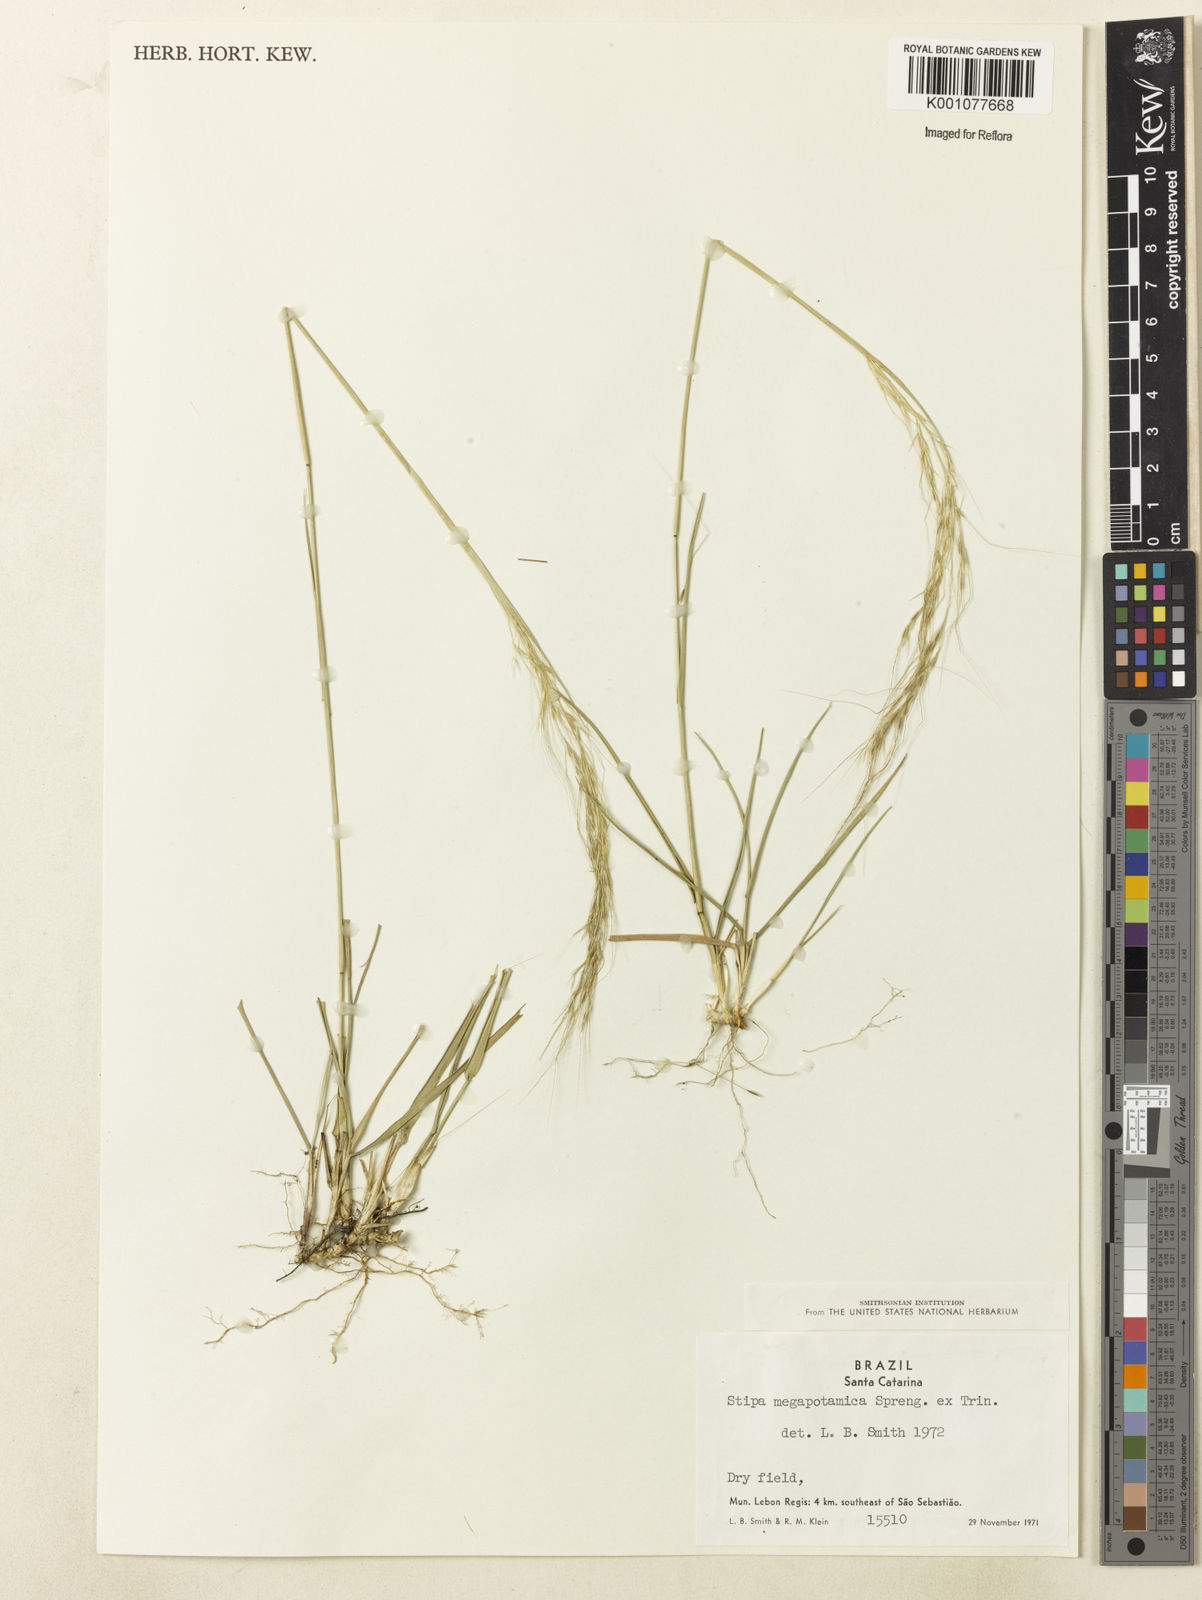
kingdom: Plantae
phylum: Tracheophyta
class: Liliopsida
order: Poales
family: Poaceae
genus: Nassella
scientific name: Nassella
